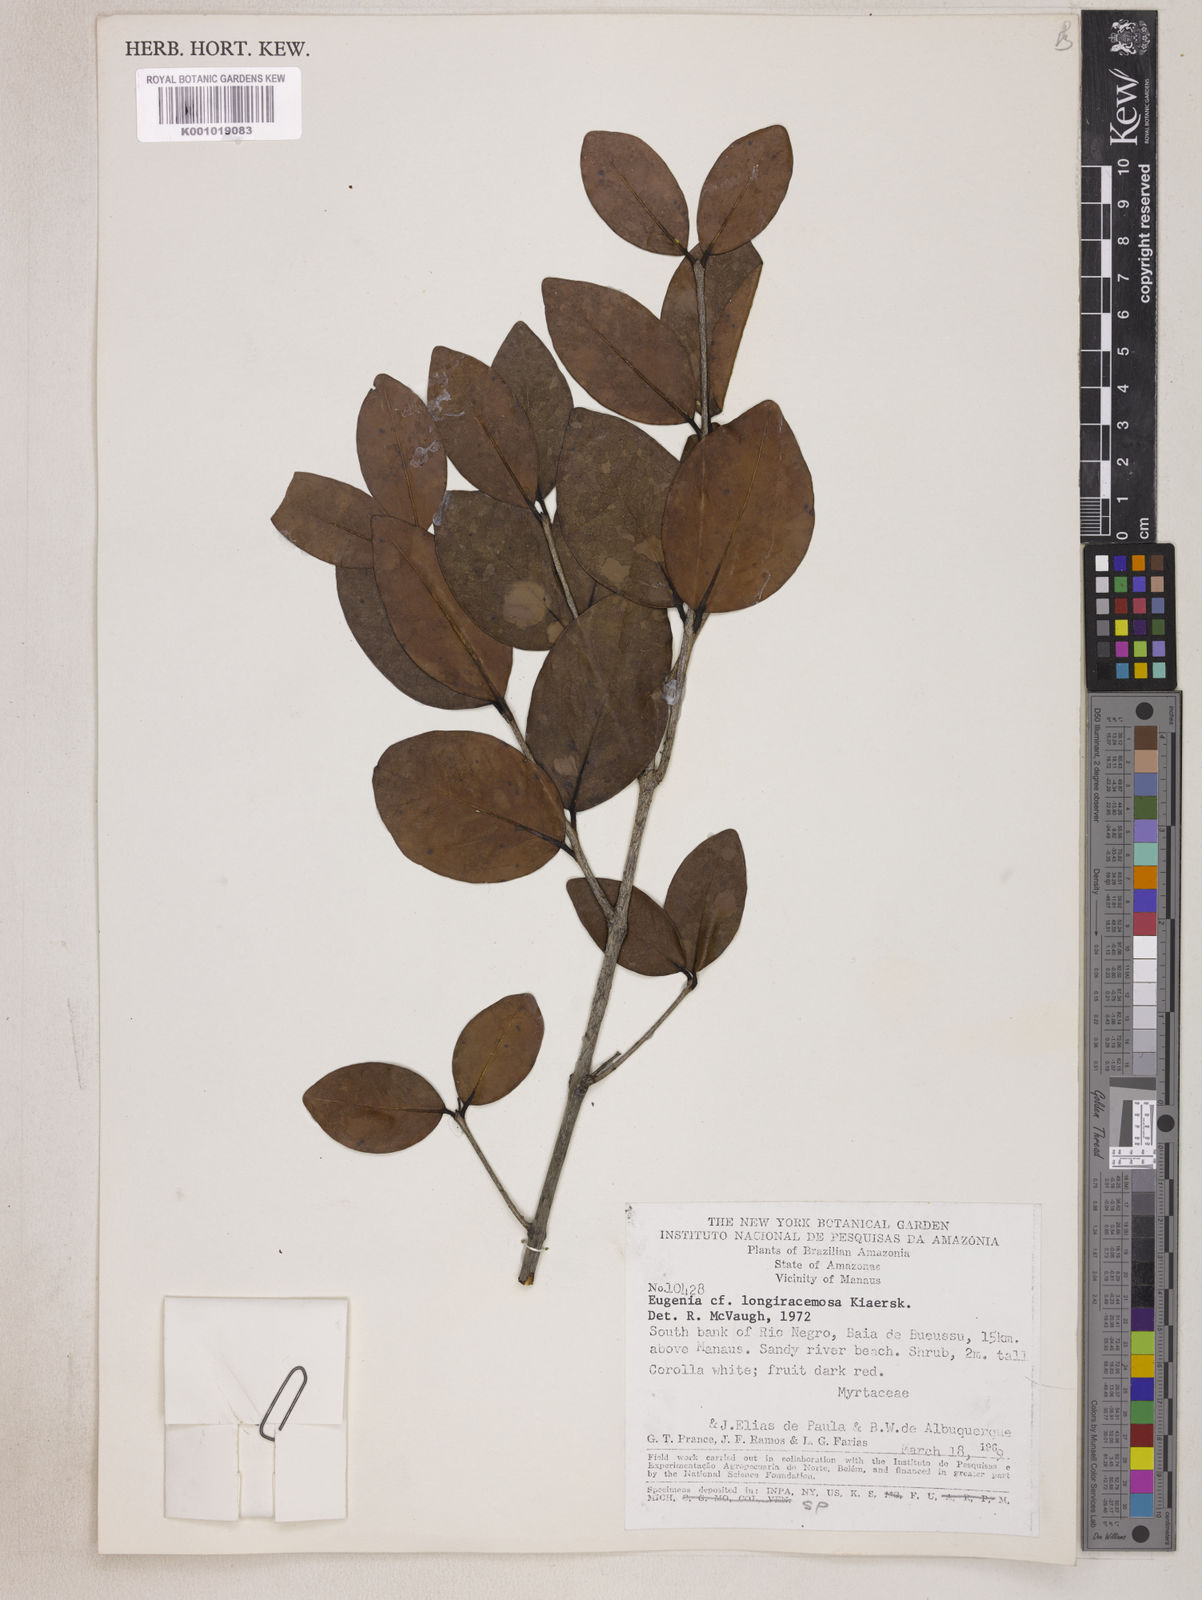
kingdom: Plantae
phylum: Tracheophyta
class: Magnoliopsida
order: Myrtales
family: Myrtaceae
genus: Eugenia
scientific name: Eugenia longiracemosa
